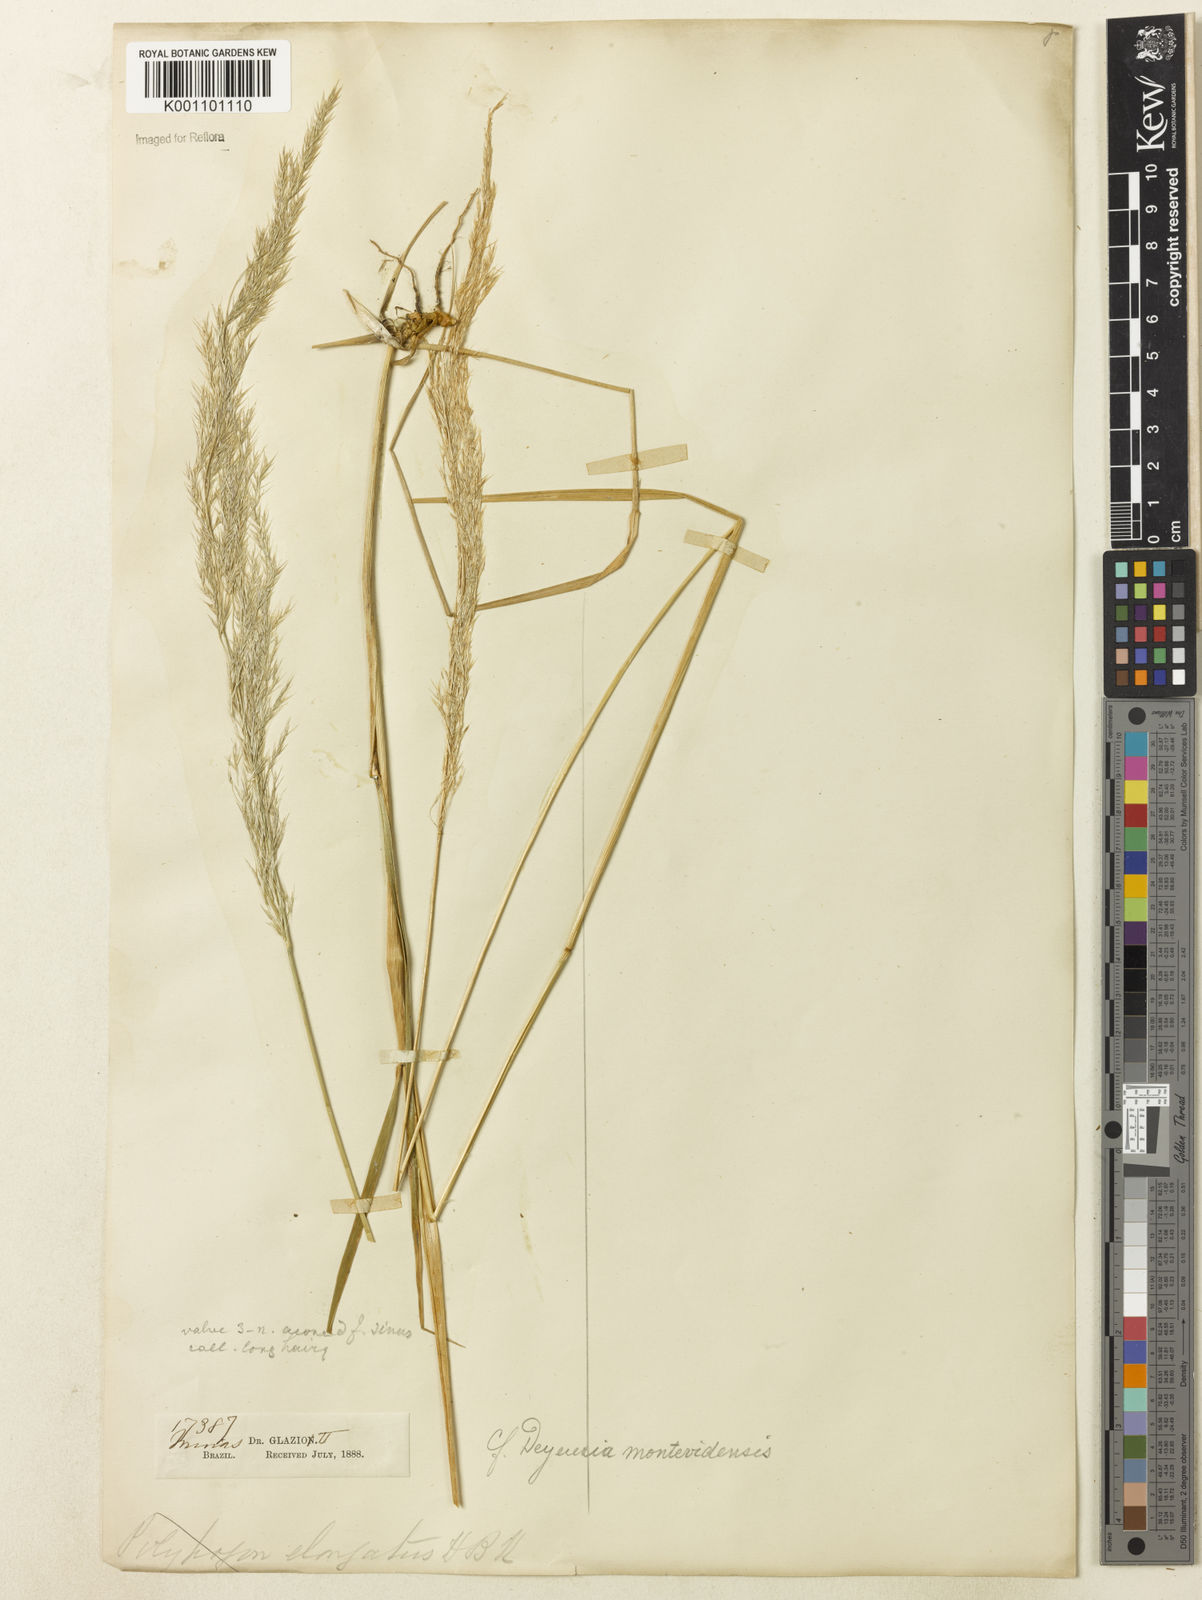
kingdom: Plantae
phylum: Tracheophyta
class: Liliopsida
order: Poales
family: Poaceae
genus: Cinnagrostis
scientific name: Cinnagrostis viridiflavescens
